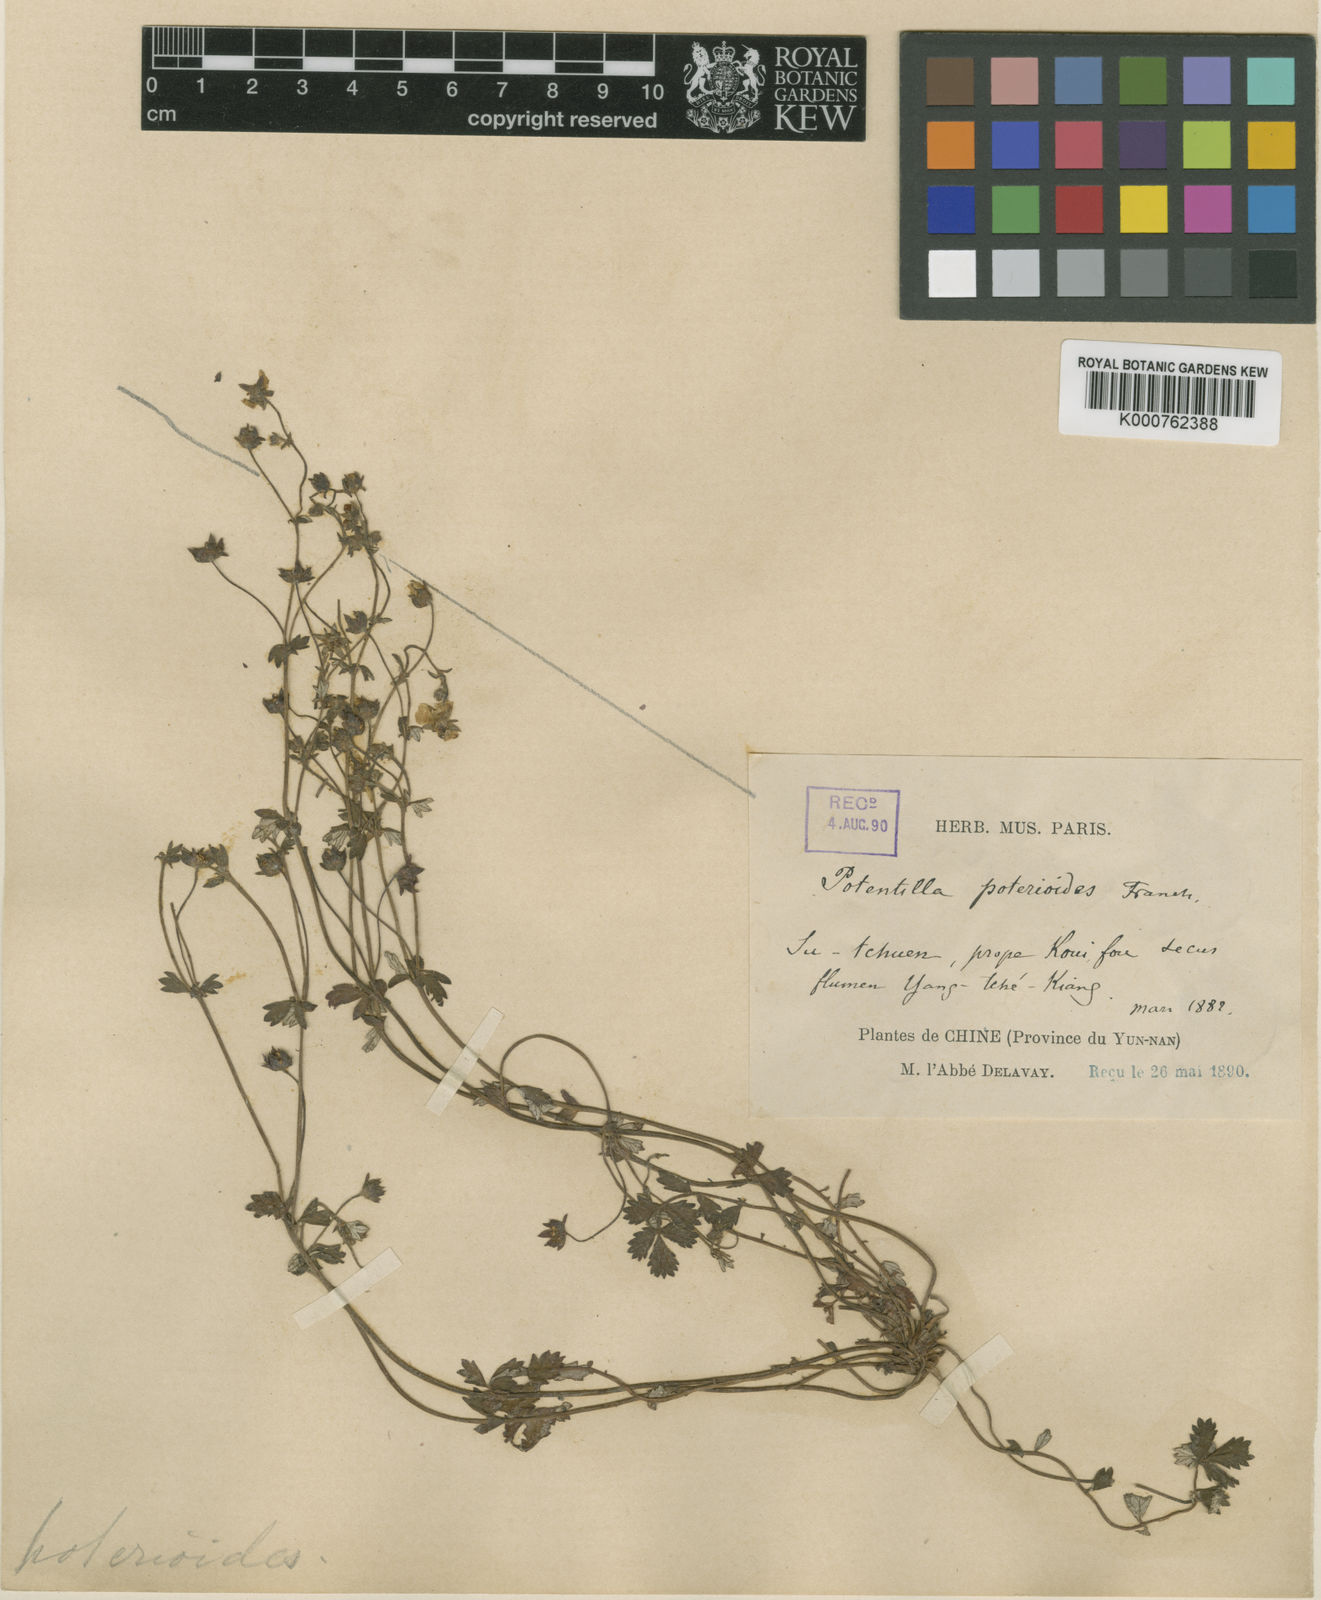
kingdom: Plantae
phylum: Tracheophyta
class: Magnoliopsida
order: Rosales
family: Rosaceae
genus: Potentilla
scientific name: Potentilla poterioides
